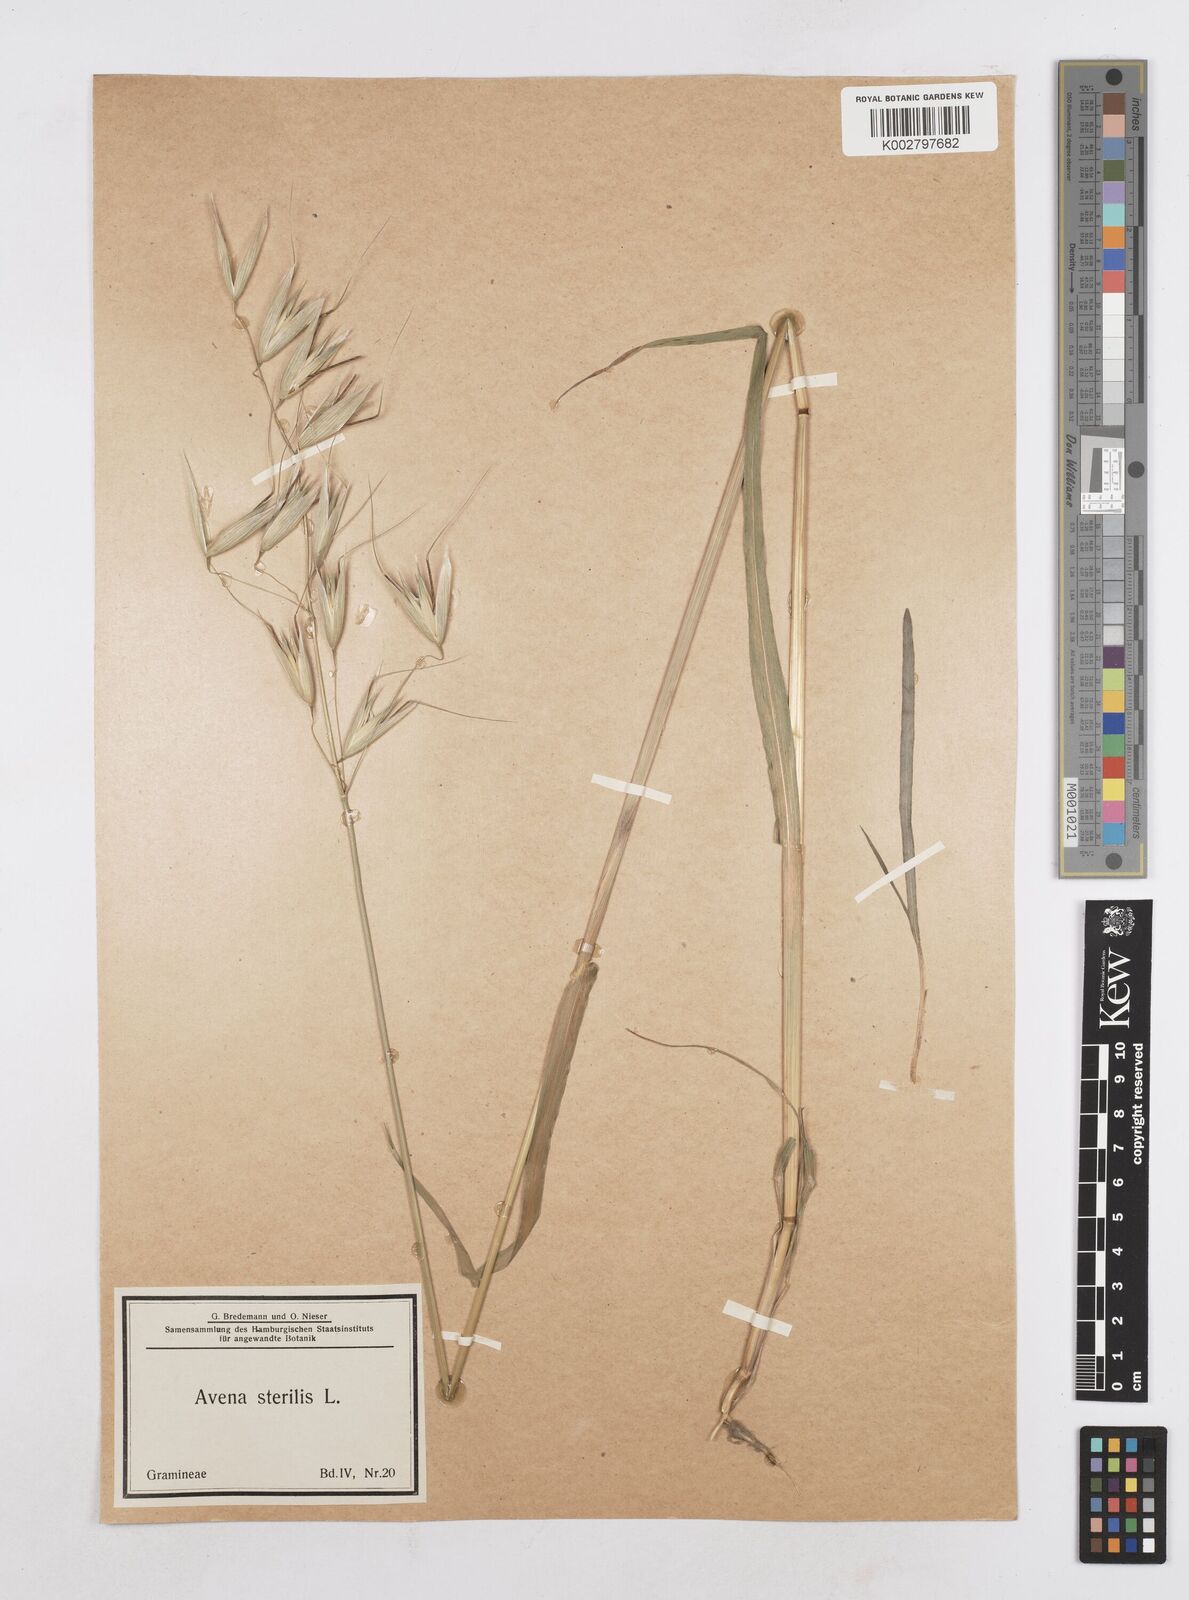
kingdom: Plantae
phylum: Tracheophyta
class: Liliopsida
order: Poales
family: Poaceae
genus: Avena
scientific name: Avena sterilis
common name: Animated oat
